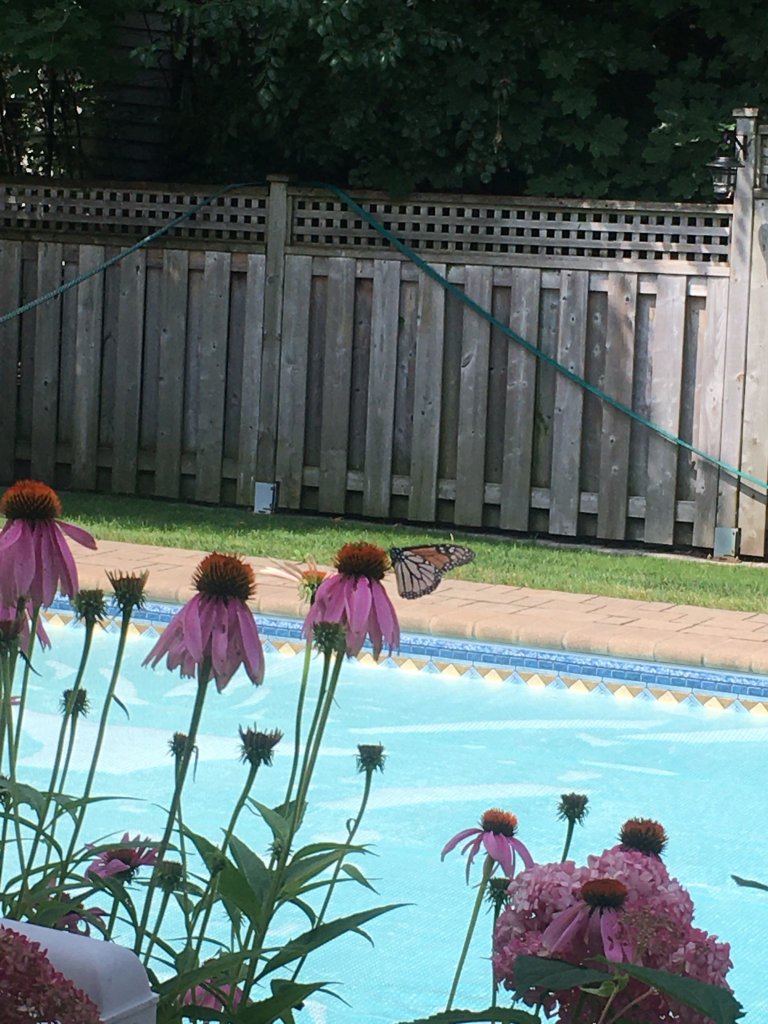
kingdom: Animalia
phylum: Arthropoda
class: Insecta
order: Lepidoptera
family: Nymphalidae
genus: Danaus
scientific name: Danaus plexippus
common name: Monarch
